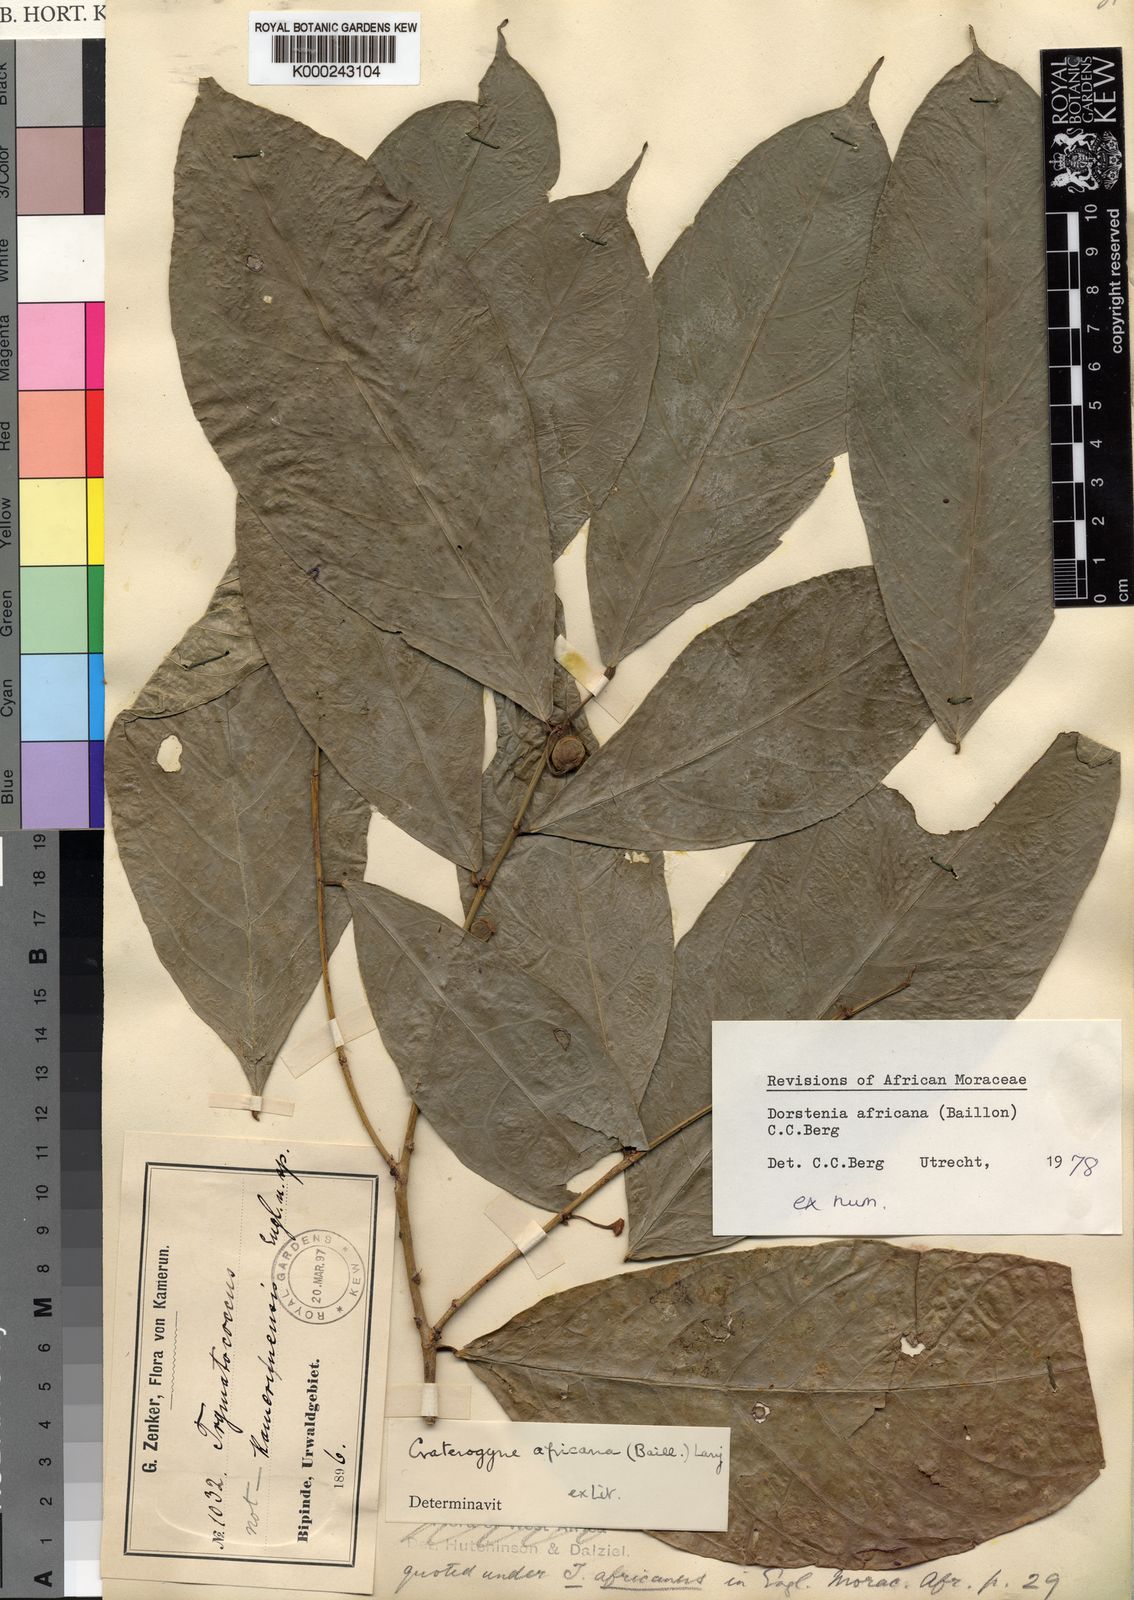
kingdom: Plantae
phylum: Tracheophyta
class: Magnoliopsida
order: Rosales
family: Moraceae
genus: Dorstenia
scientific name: Dorstenia africana
